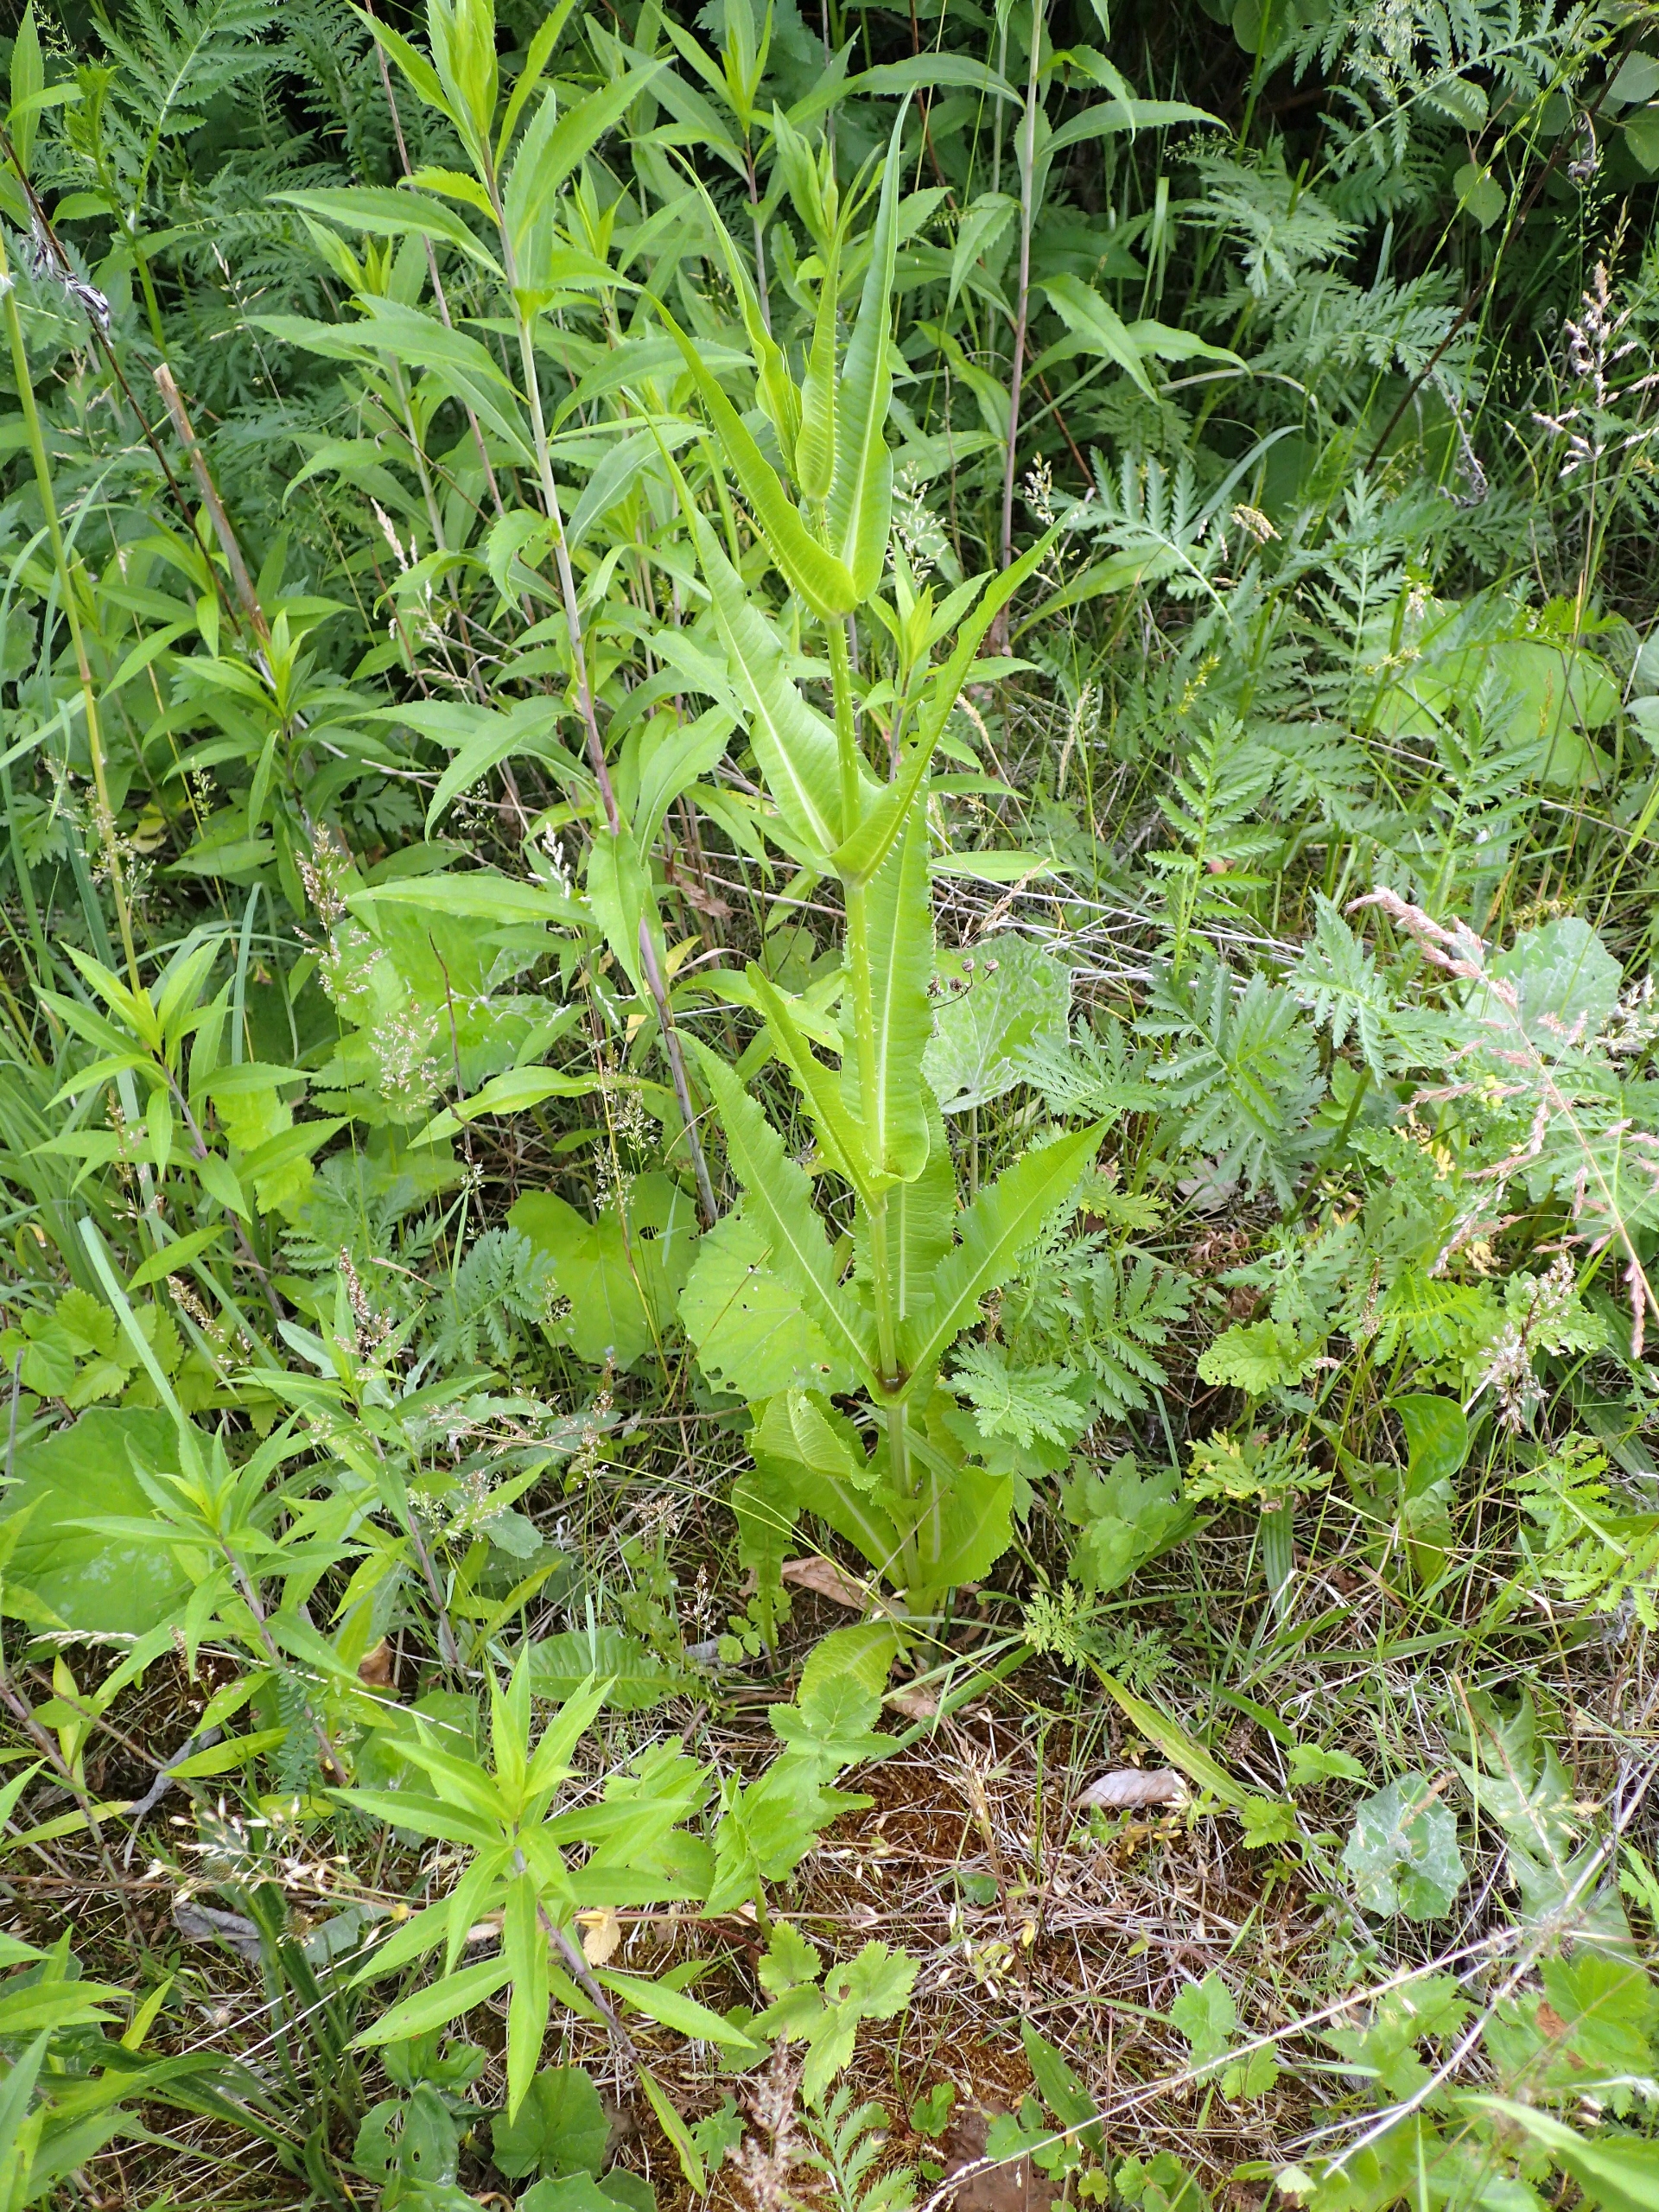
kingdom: Plantae
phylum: Tracheophyta
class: Magnoliopsida
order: Dipsacales
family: Caprifoliaceae
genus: Dipsacus
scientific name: Dipsacus fullonum
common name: Gærde-kartebolle
